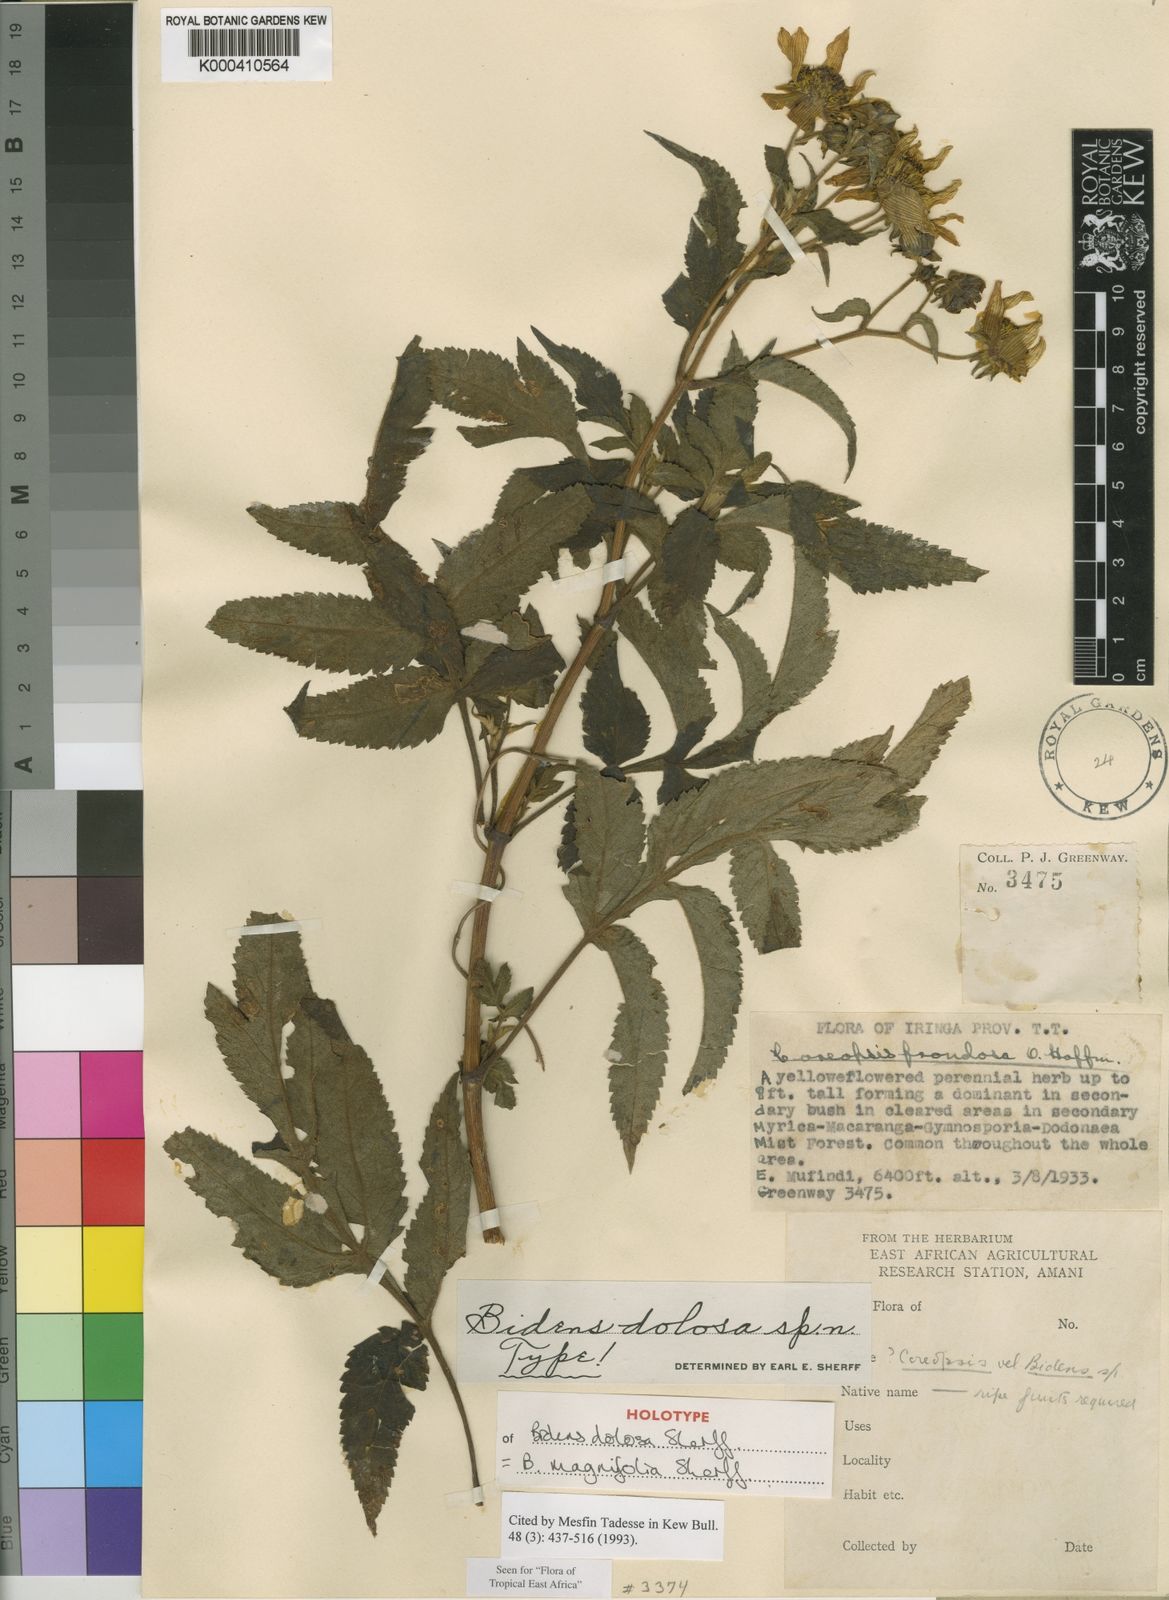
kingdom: Plantae
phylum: Tracheophyta
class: Magnoliopsida
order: Asterales
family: Asteraceae
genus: Bidens
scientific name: Bidens magnifolia
